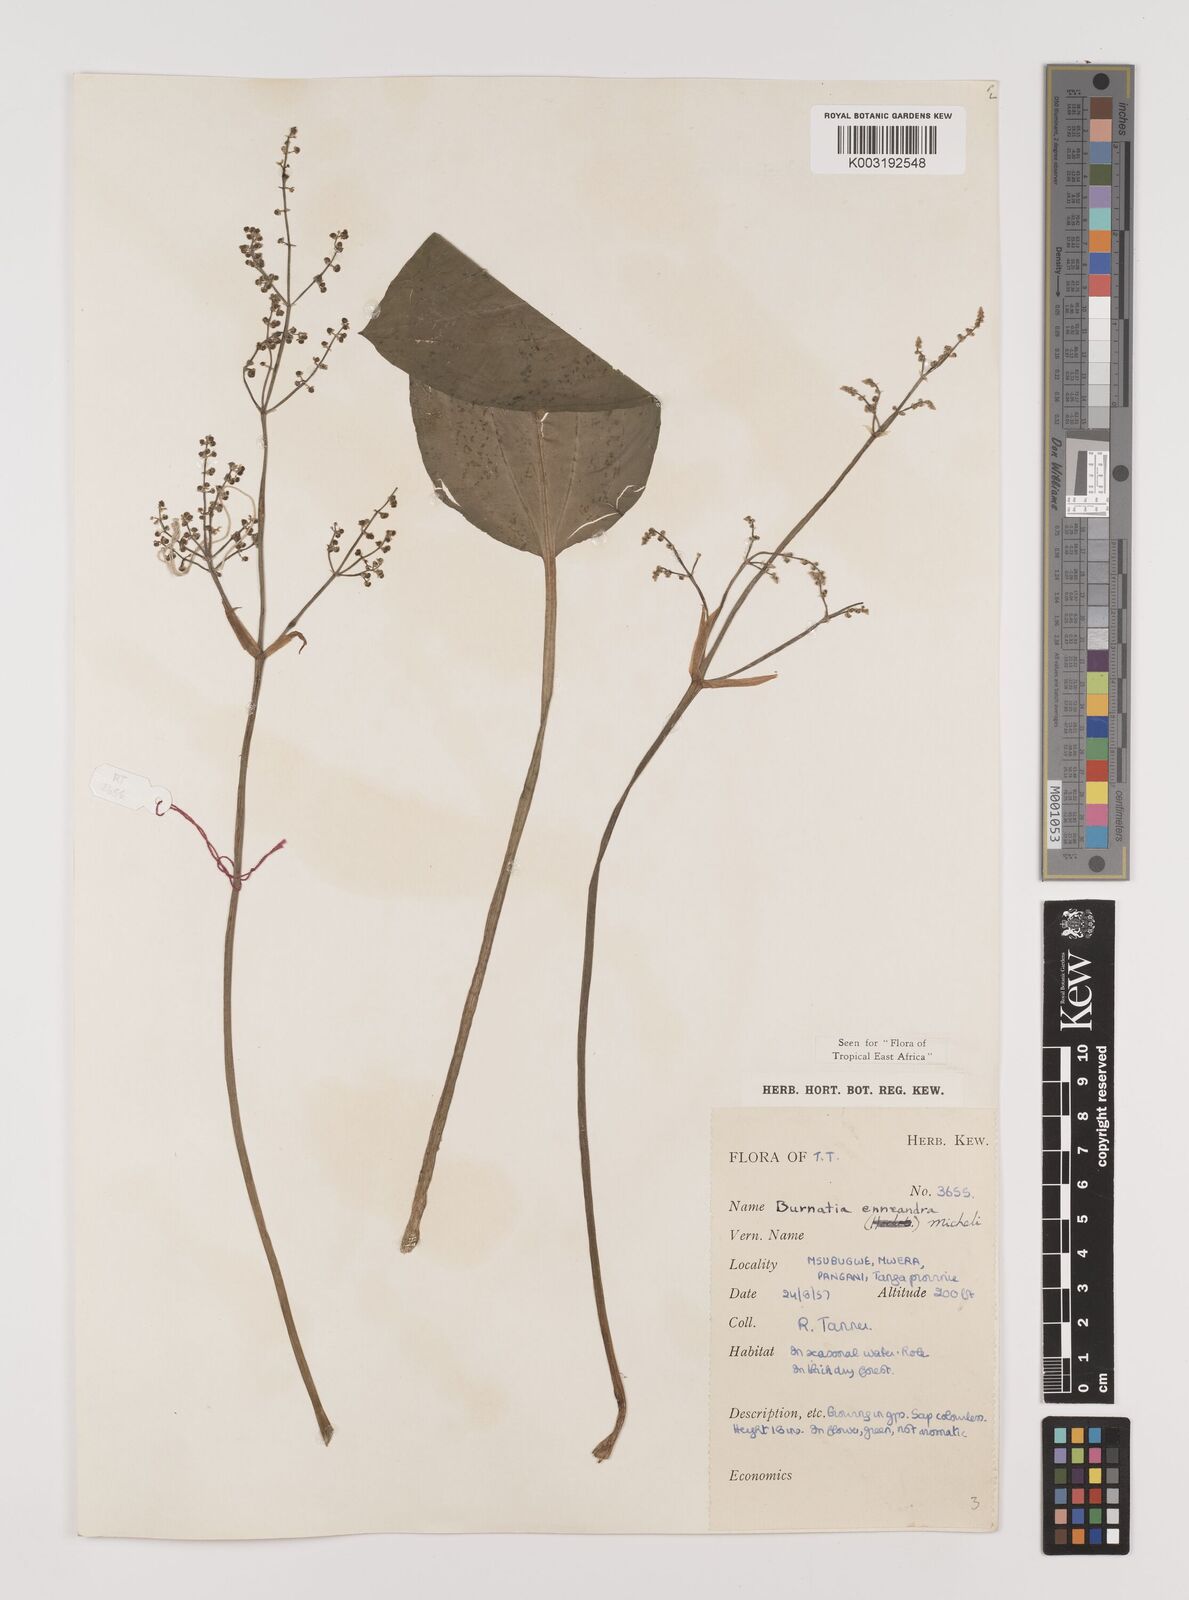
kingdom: Plantae
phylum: Tracheophyta
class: Liliopsida
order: Alismatales
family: Alismataceae
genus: Burnatia
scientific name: Burnatia enneandra
